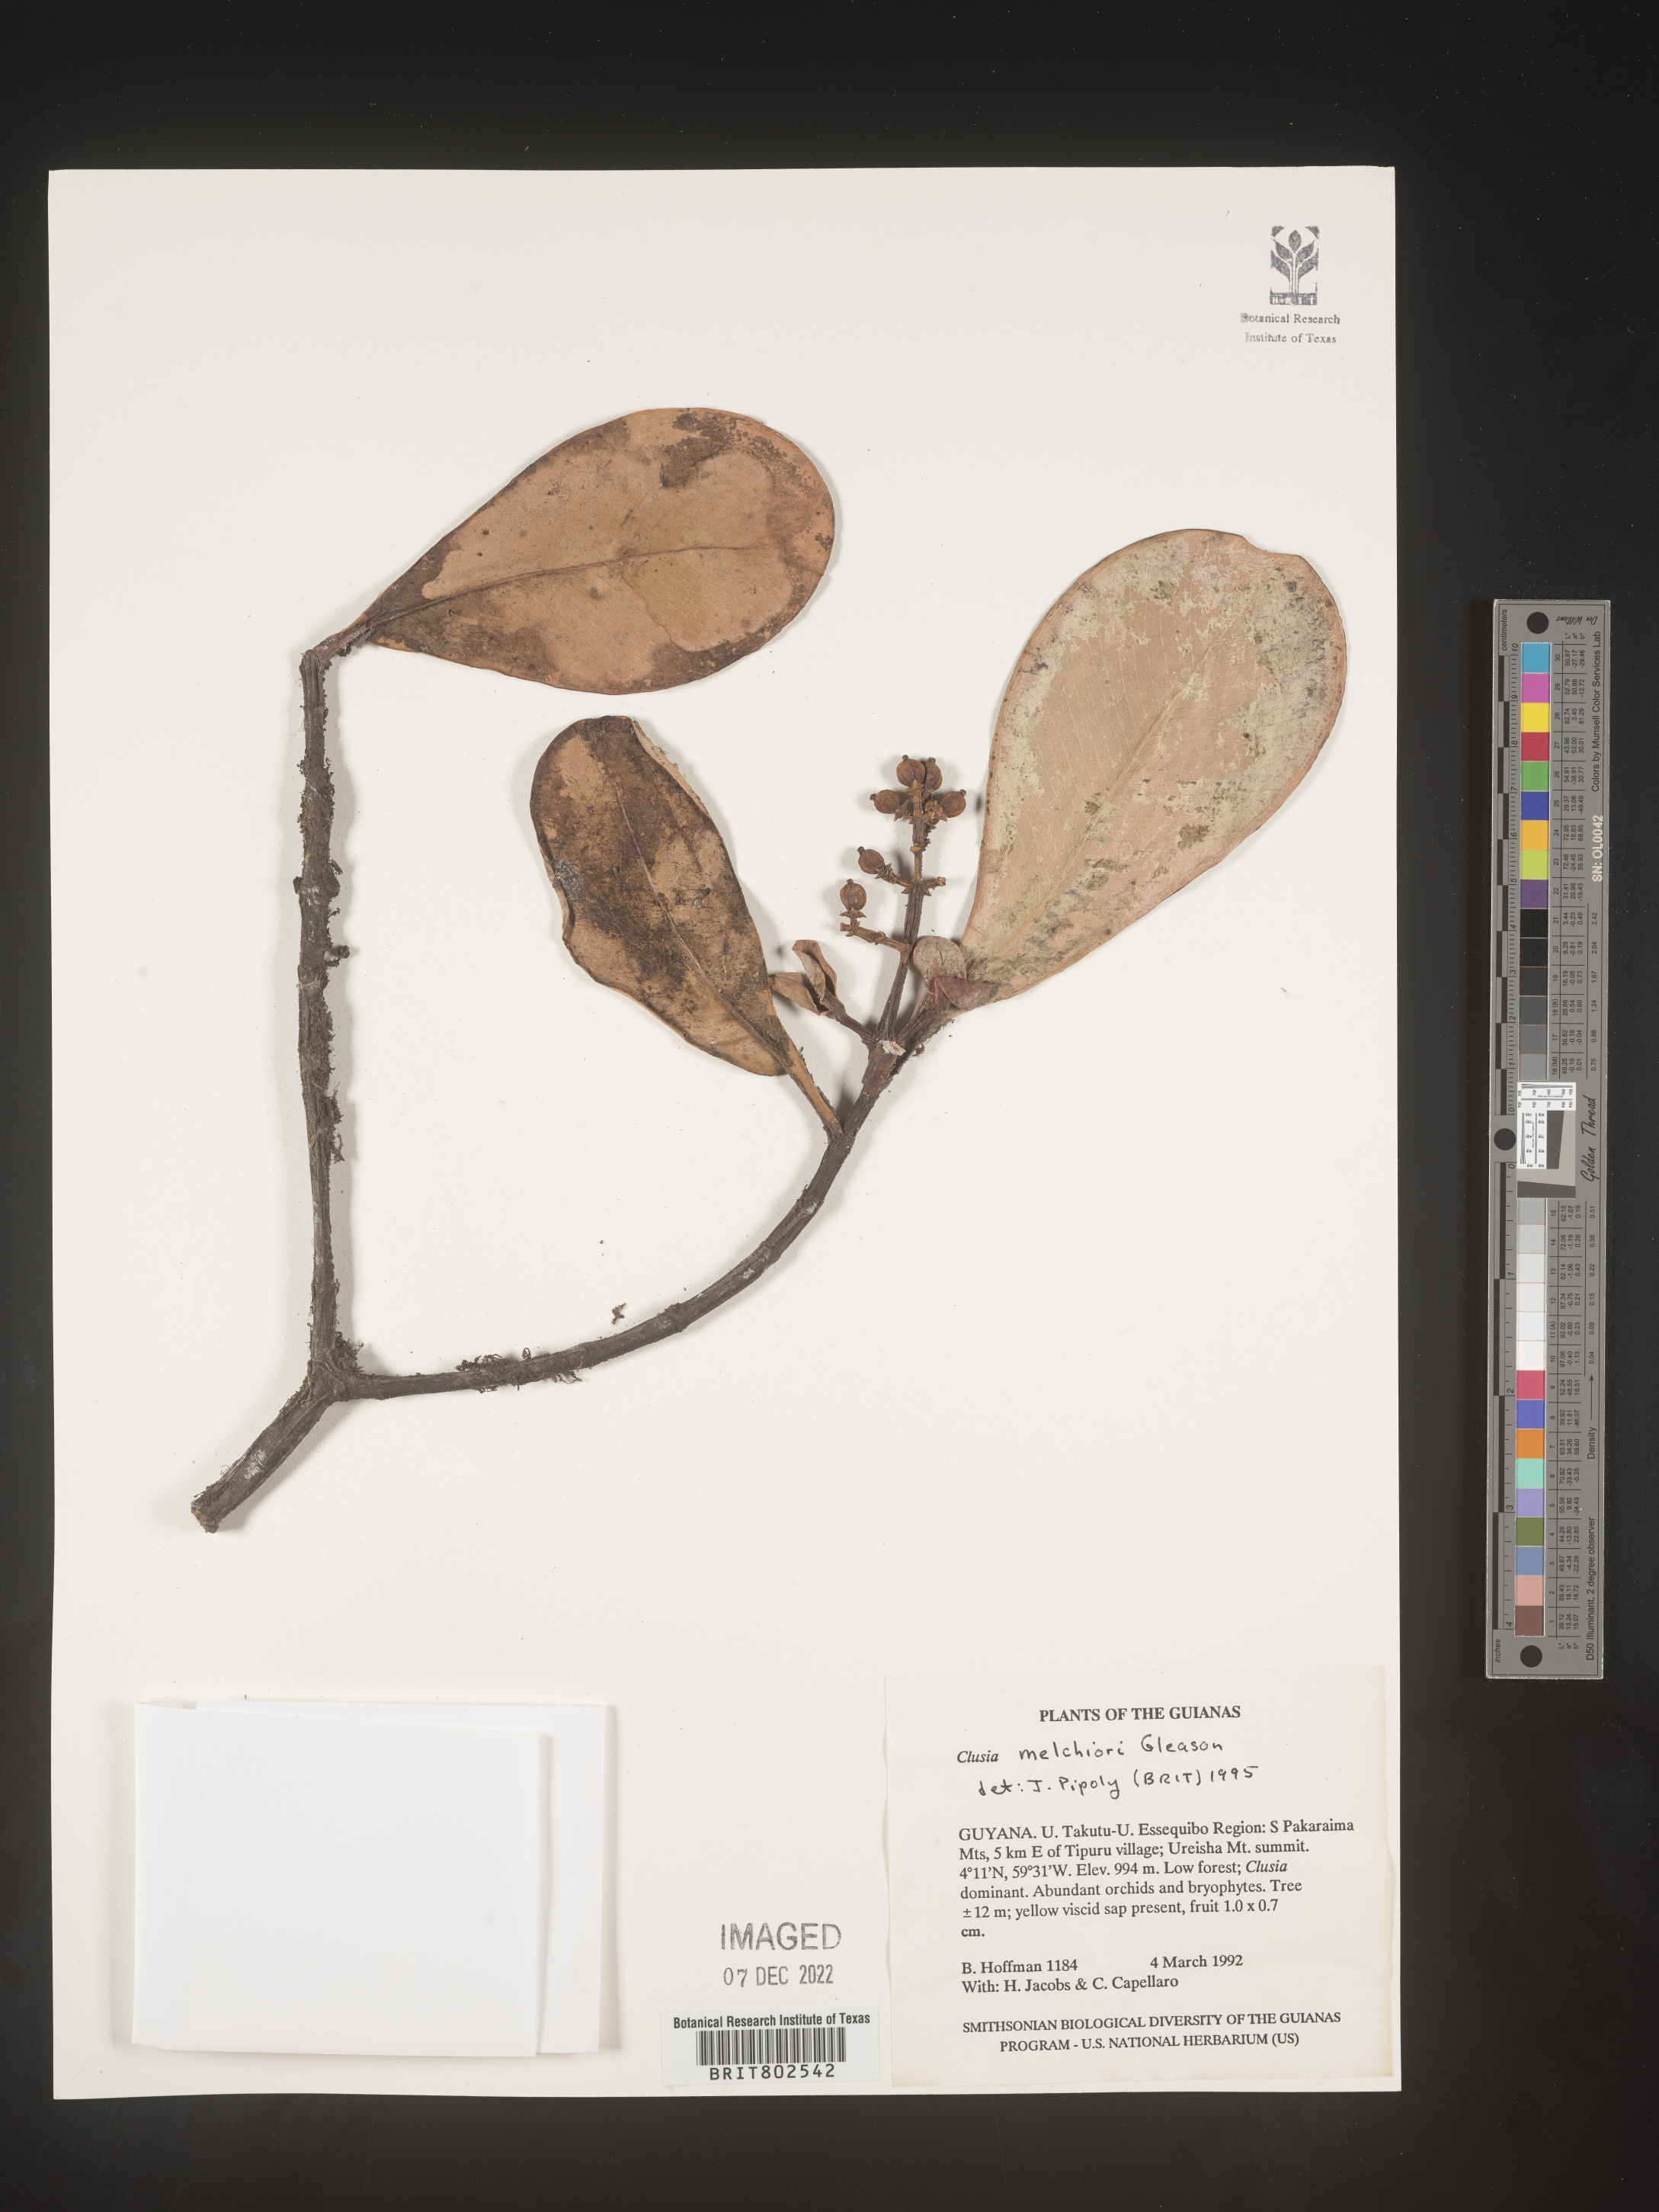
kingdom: Plantae
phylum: Tracheophyta
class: Magnoliopsida
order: Malpighiales
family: Clusiaceae
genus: Clusia
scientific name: Clusia melchiorii
